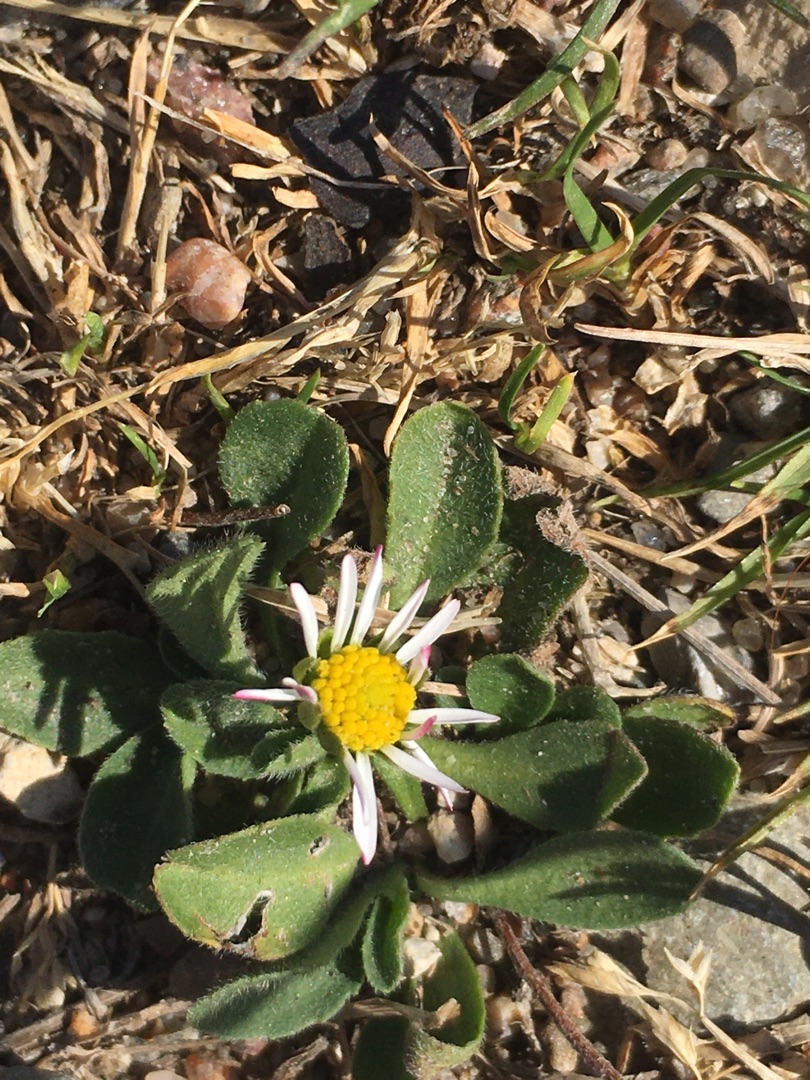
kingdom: Plantae
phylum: Tracheophyta
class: Magnoliopsida
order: Asterales
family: Asteraceae
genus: Bellis
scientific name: Bellis perennis
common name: Tusindfryd
